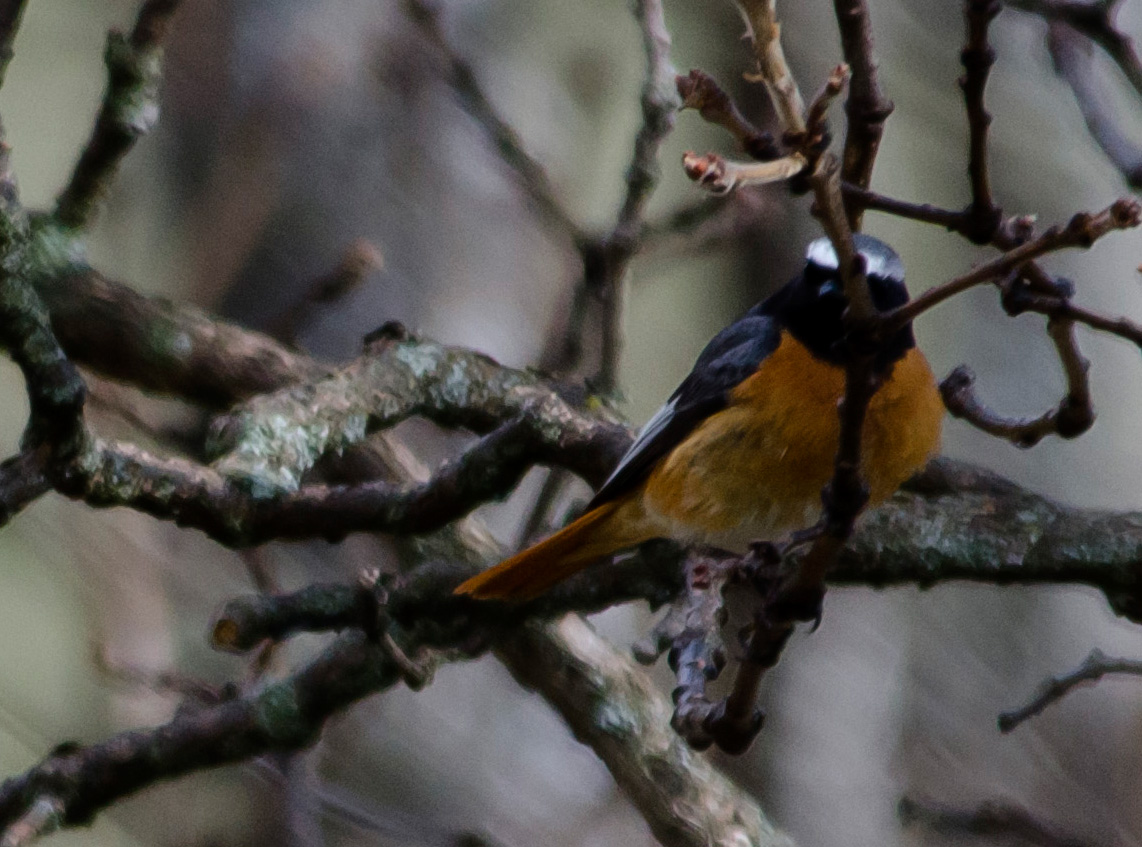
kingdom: Animalia
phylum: Chordata
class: Aves
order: Passeriformes
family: Muscicapidae
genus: Phoenicurus
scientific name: Phoenicurus phoenicurus
